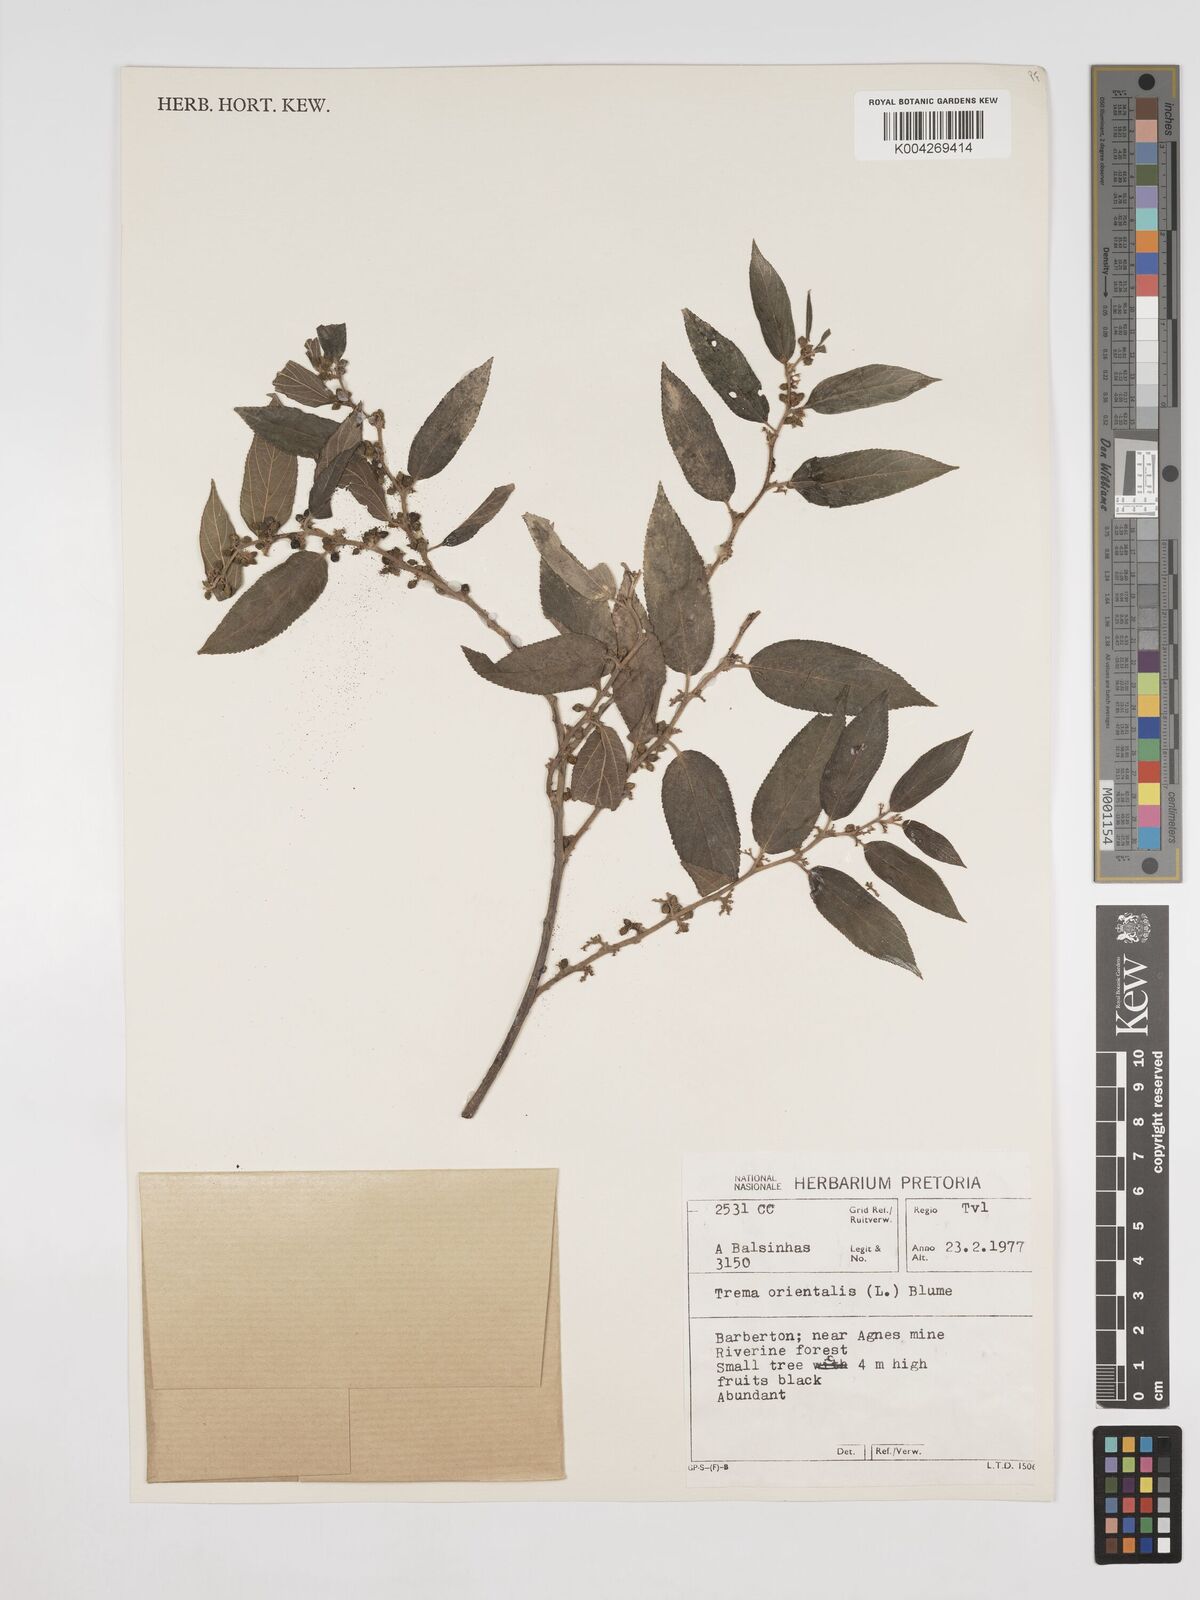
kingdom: Plantae
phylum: Tracheophyta
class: Magnoliopsida
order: Rosales
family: Cannabaceae
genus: Trema
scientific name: Trema orientale
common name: Indian charcoal tree
